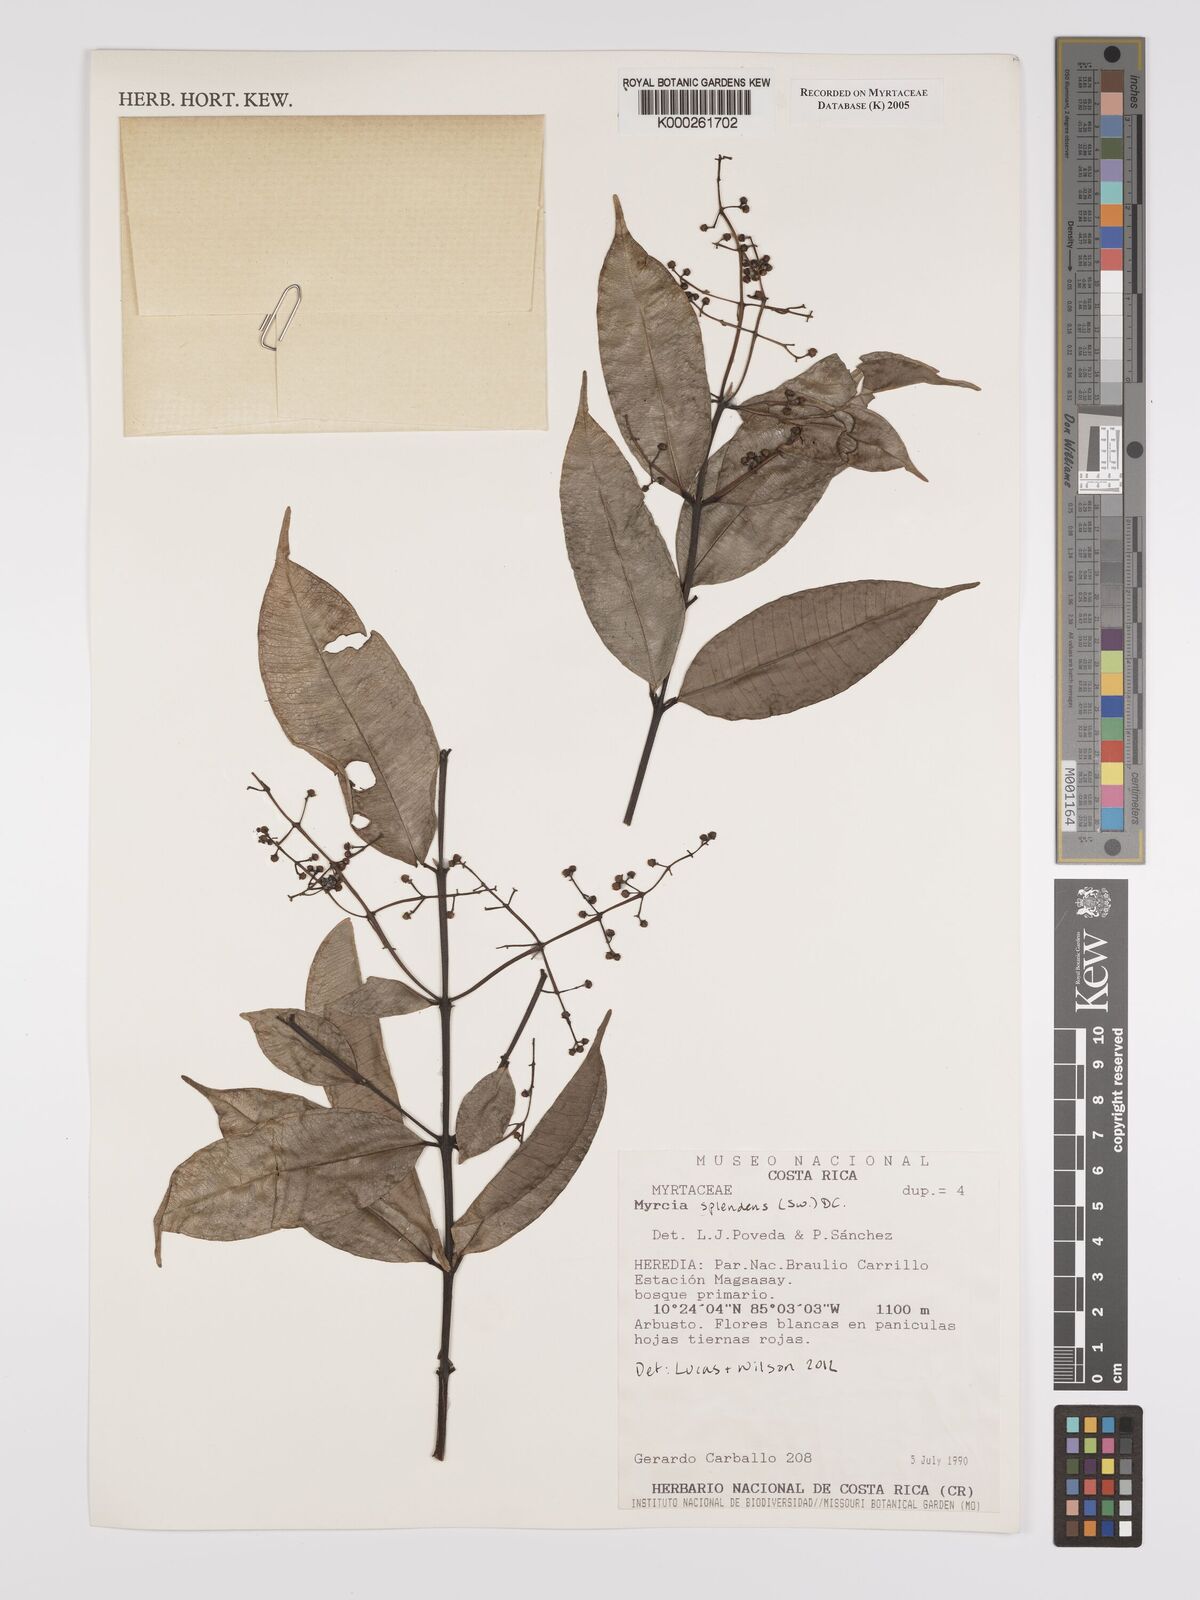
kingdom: Plantae
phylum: Tracheophyta
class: Magnoliopsida
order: Myrtales
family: Myrtaceae
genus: Myrcia
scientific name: Myrcia
